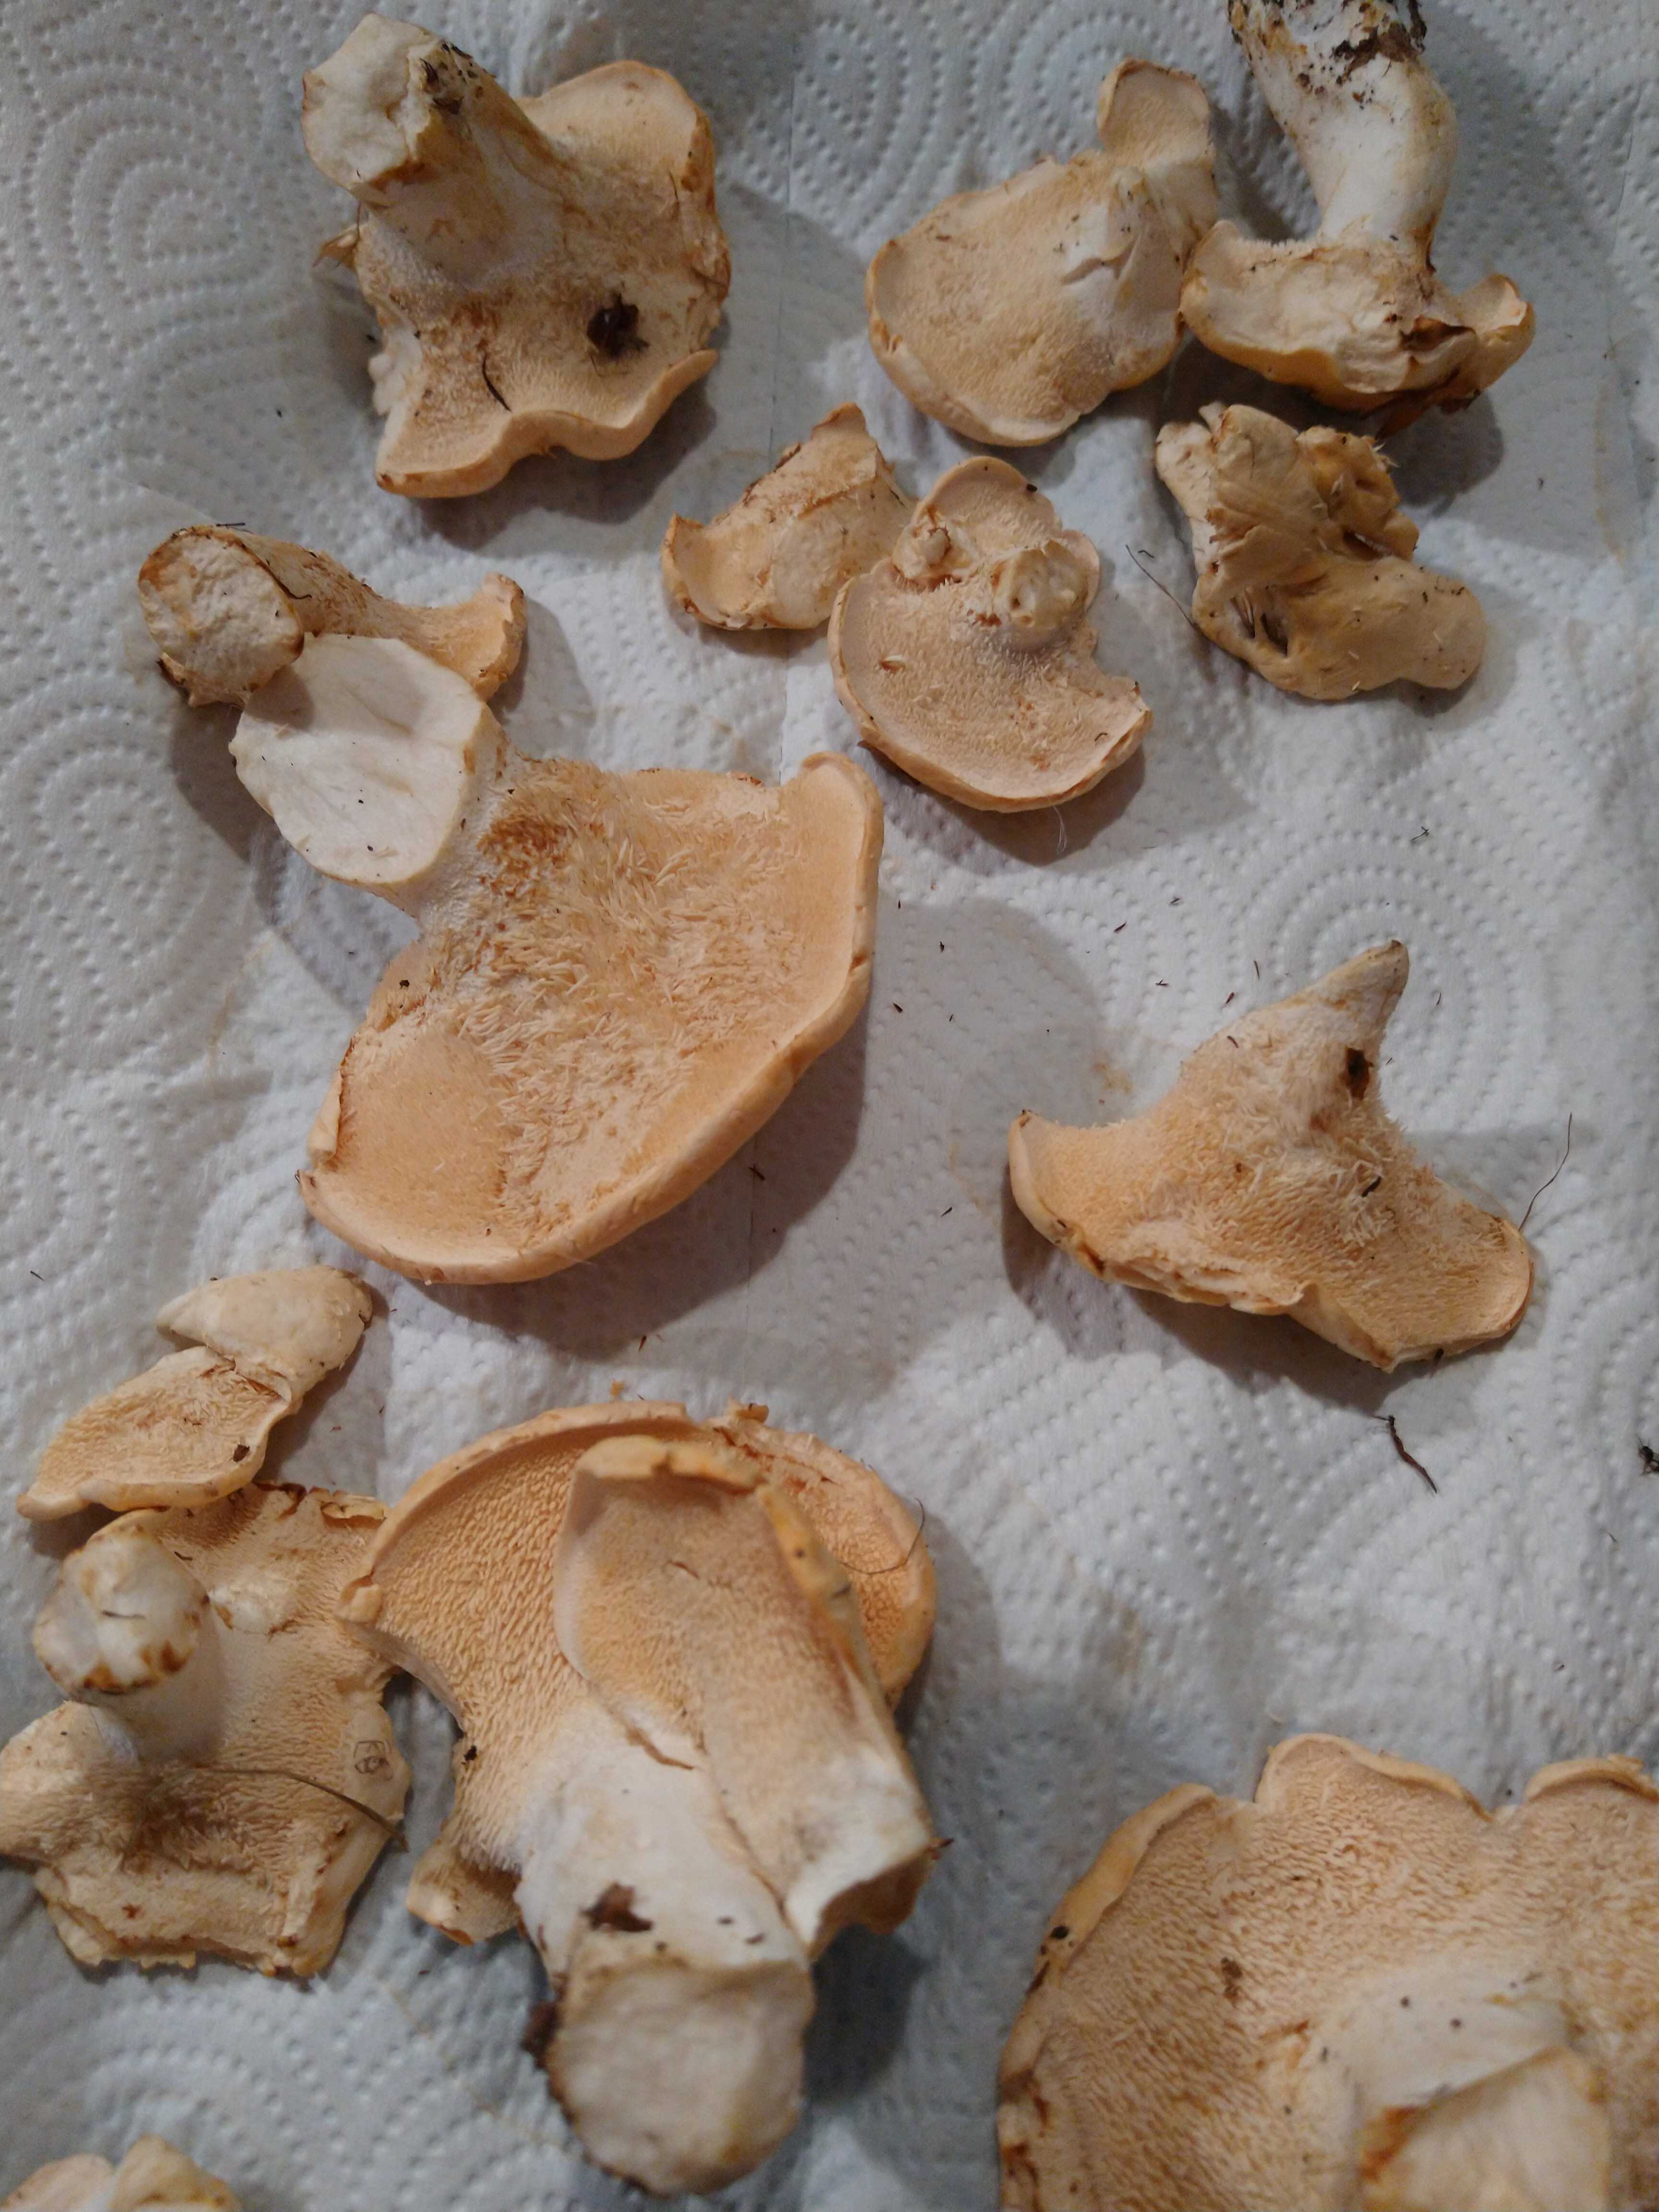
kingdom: Fungi
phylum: Basidiomycota
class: Agaricomycetes
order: Cantharellales
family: Hydnaceae
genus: Hydnum
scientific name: Hydnum repandum
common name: almindelig pigsvamp
